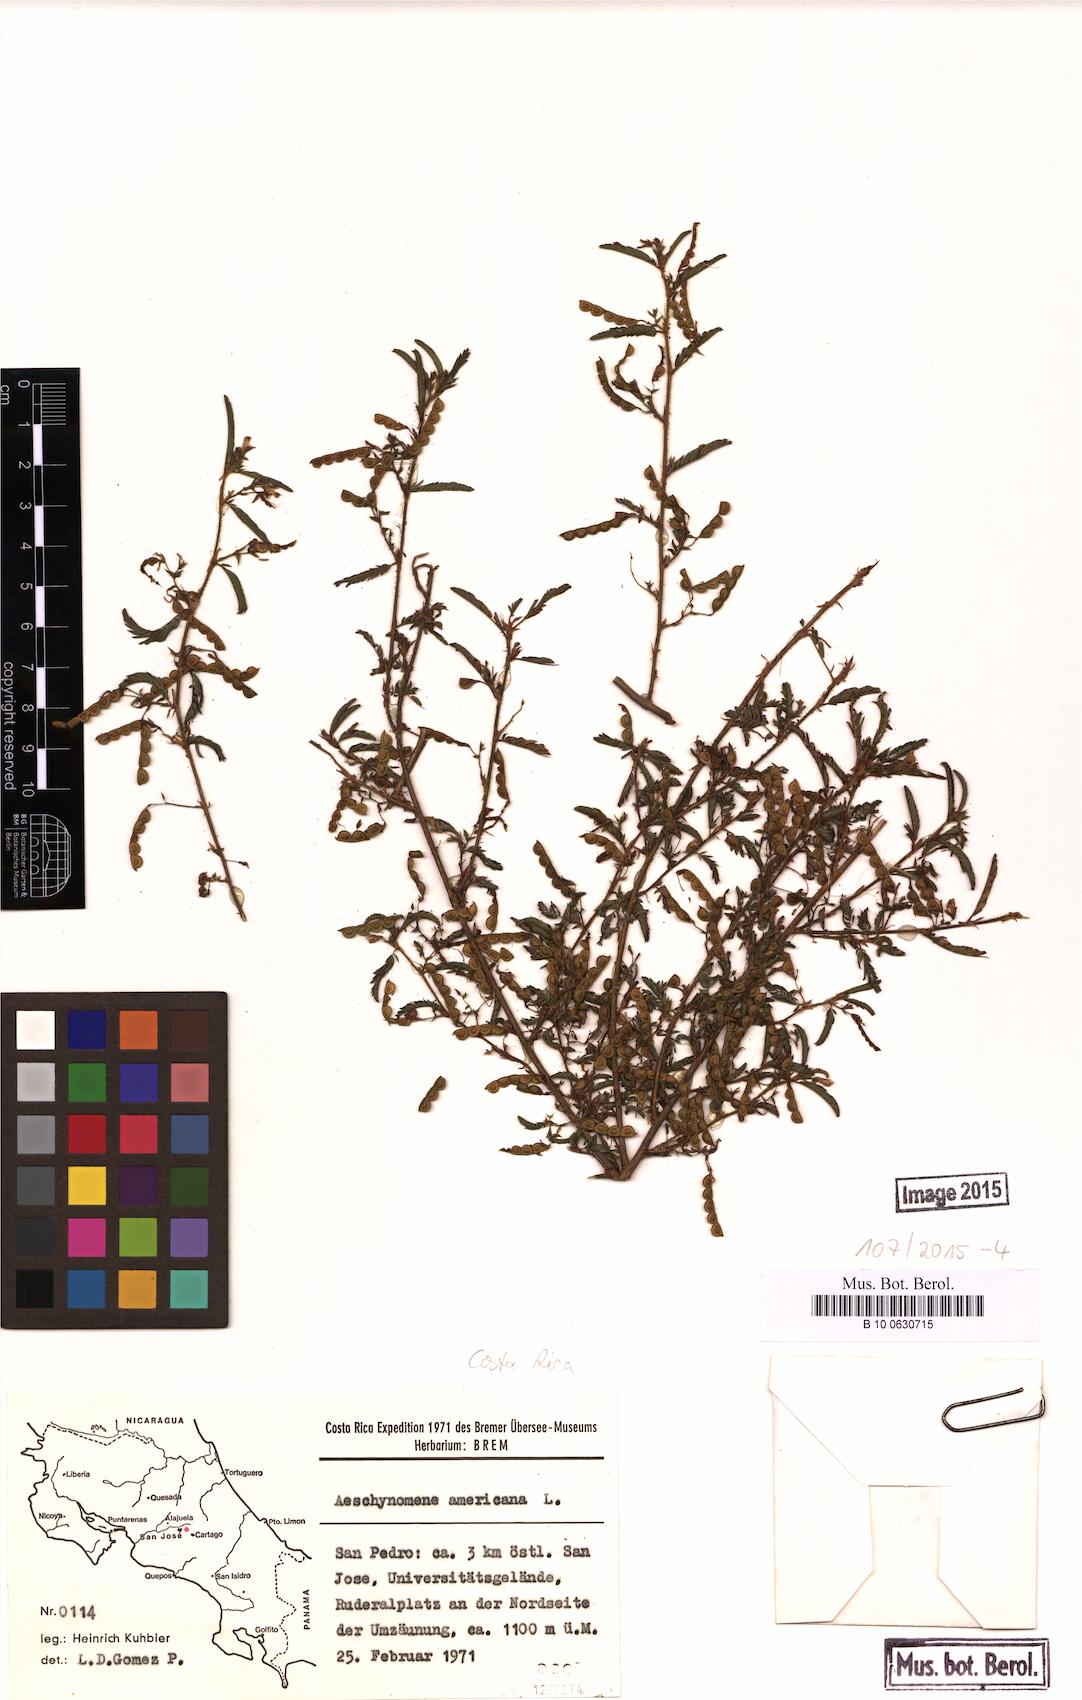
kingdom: Plantae
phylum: Tracheophyta
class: Magnoliopsida
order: Fabales
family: Fabaceae
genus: Aeschynomene
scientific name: Aeschynomene americana
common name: Joint-vetch
